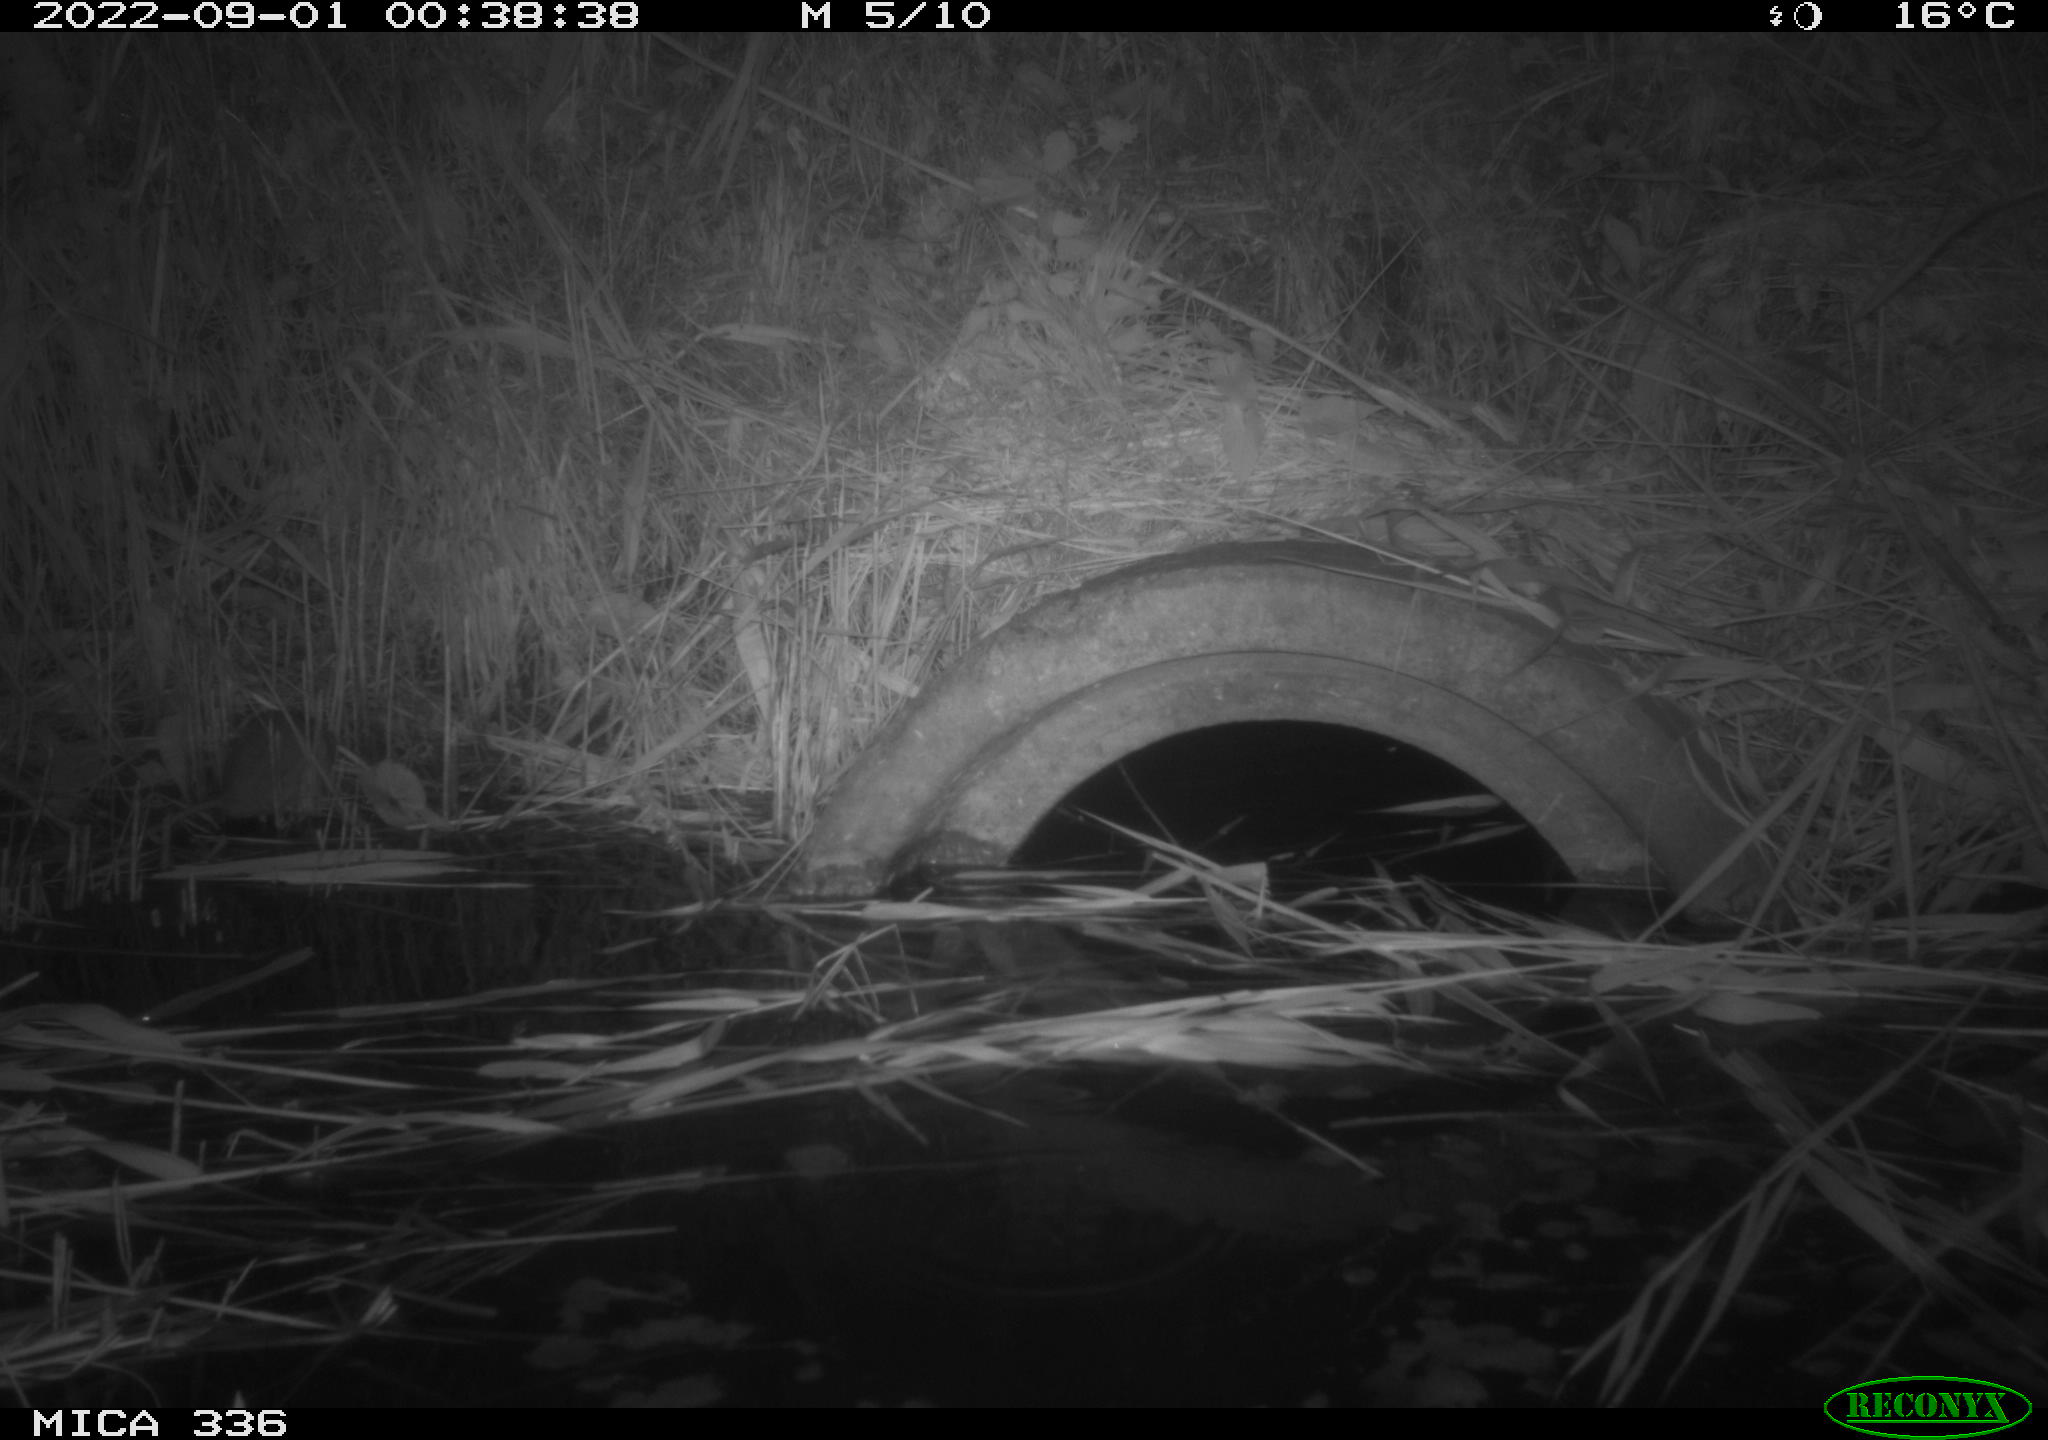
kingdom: Animalia
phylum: Chordata
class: Mammalia
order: Rodentia
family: Muridae
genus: Rattus
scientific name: Rattus norvegicus
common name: Brown rat
